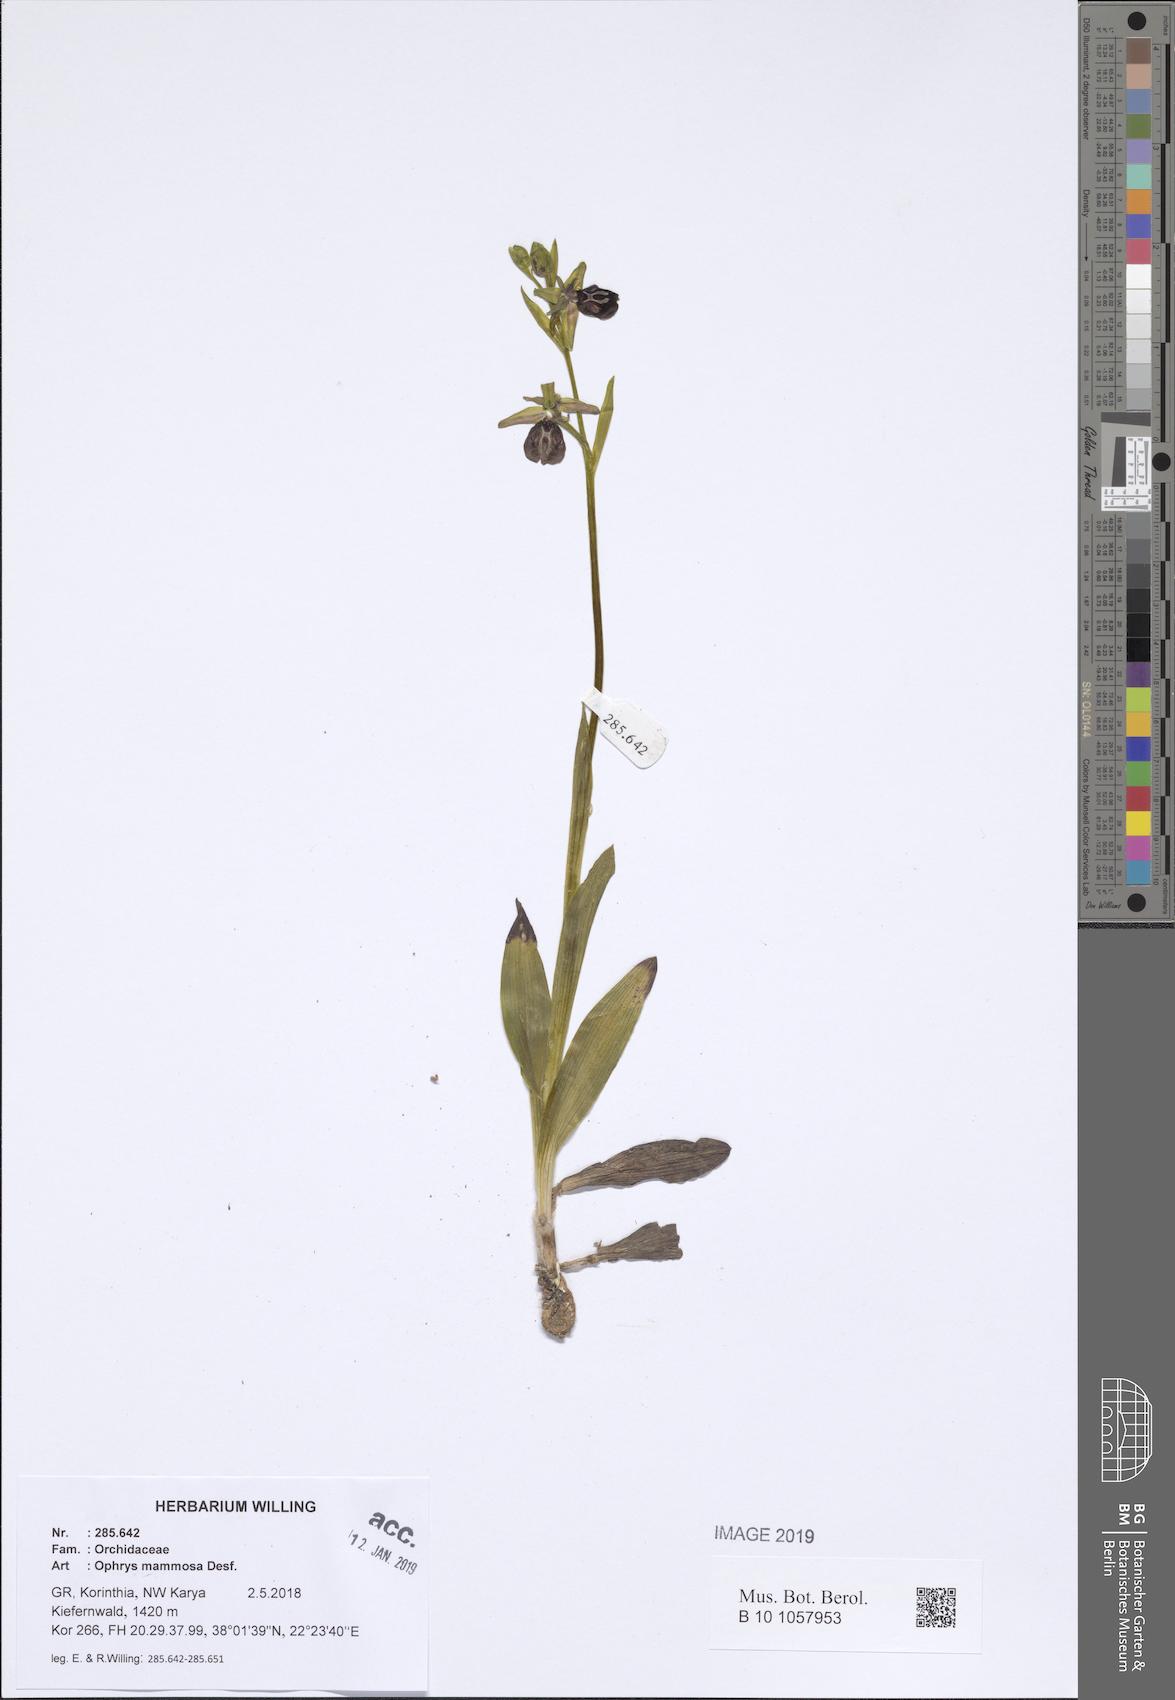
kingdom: Plantae
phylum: Tracheophyta
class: Liliopsida
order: Asparagales
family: Orchidaceae
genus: Ophrys
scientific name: Ophrys sphegodes
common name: Early spider-orchid
